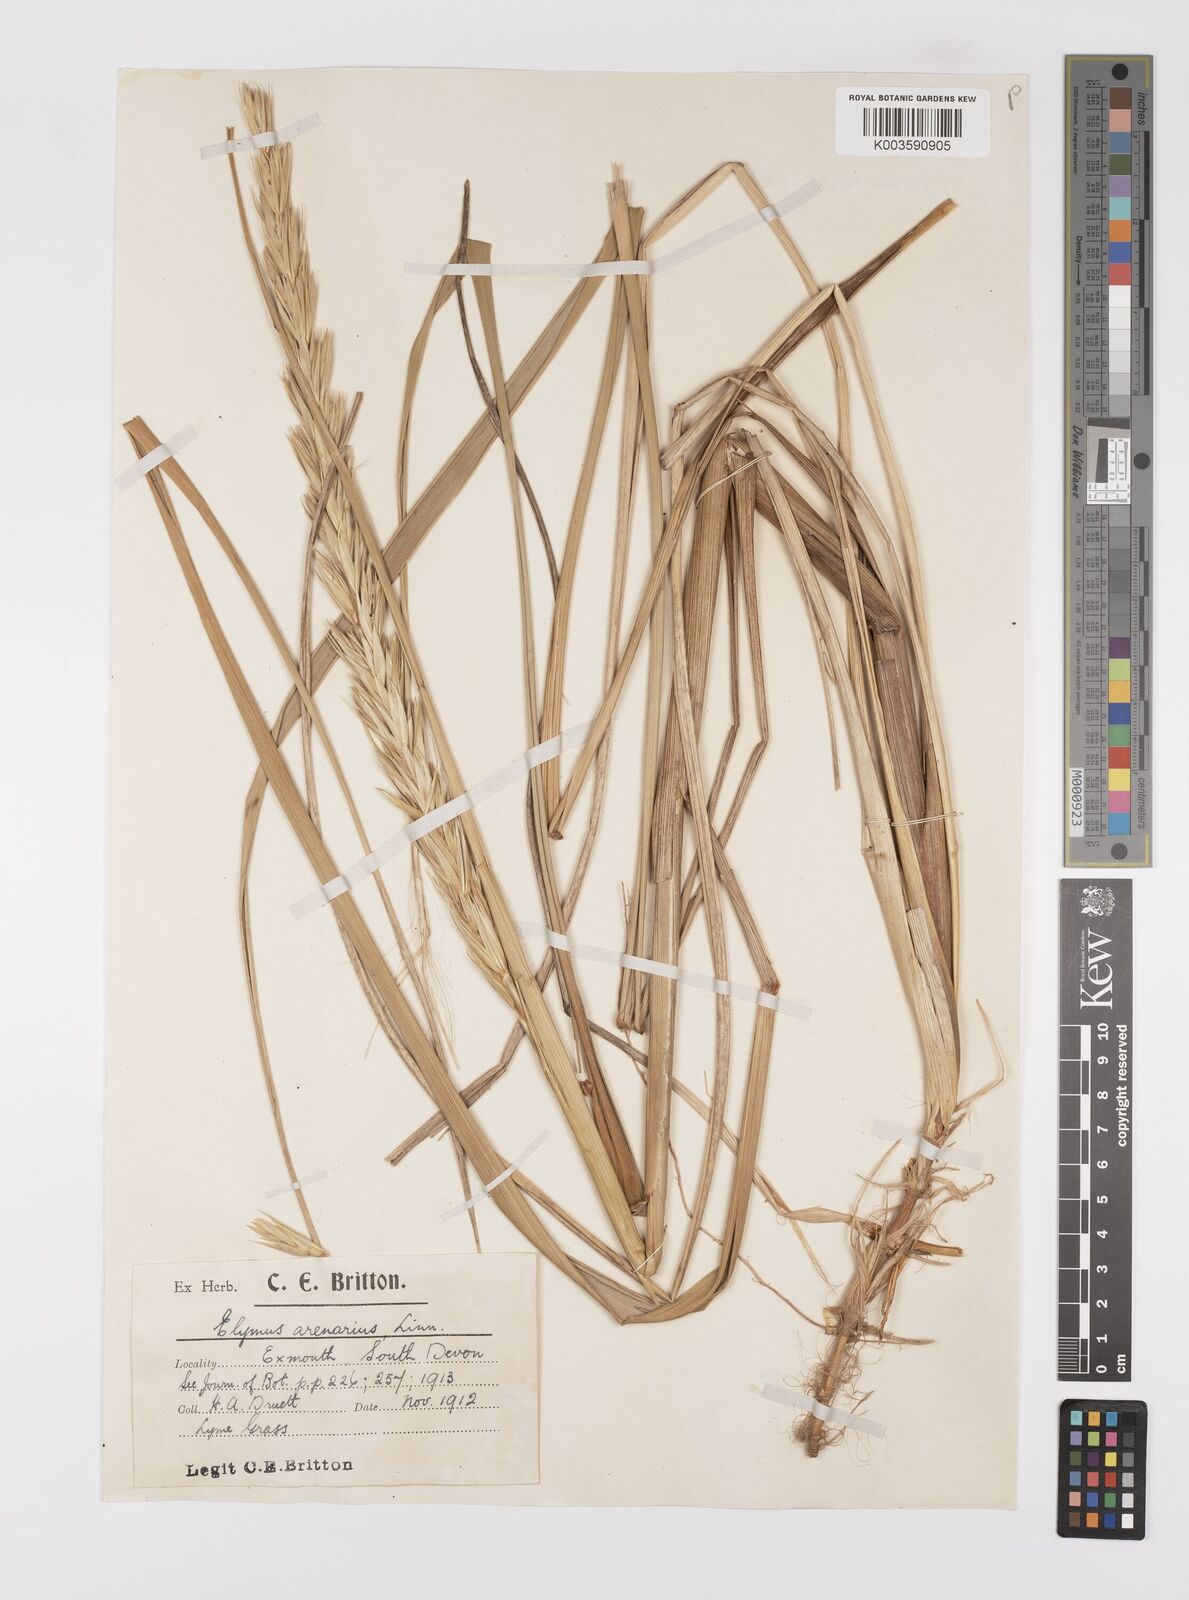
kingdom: Plantae
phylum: Tracheophyta
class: Liliopsida
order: Poales
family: Poaceae
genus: Leymus
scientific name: Leymus arenarius
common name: Lyme-grass
